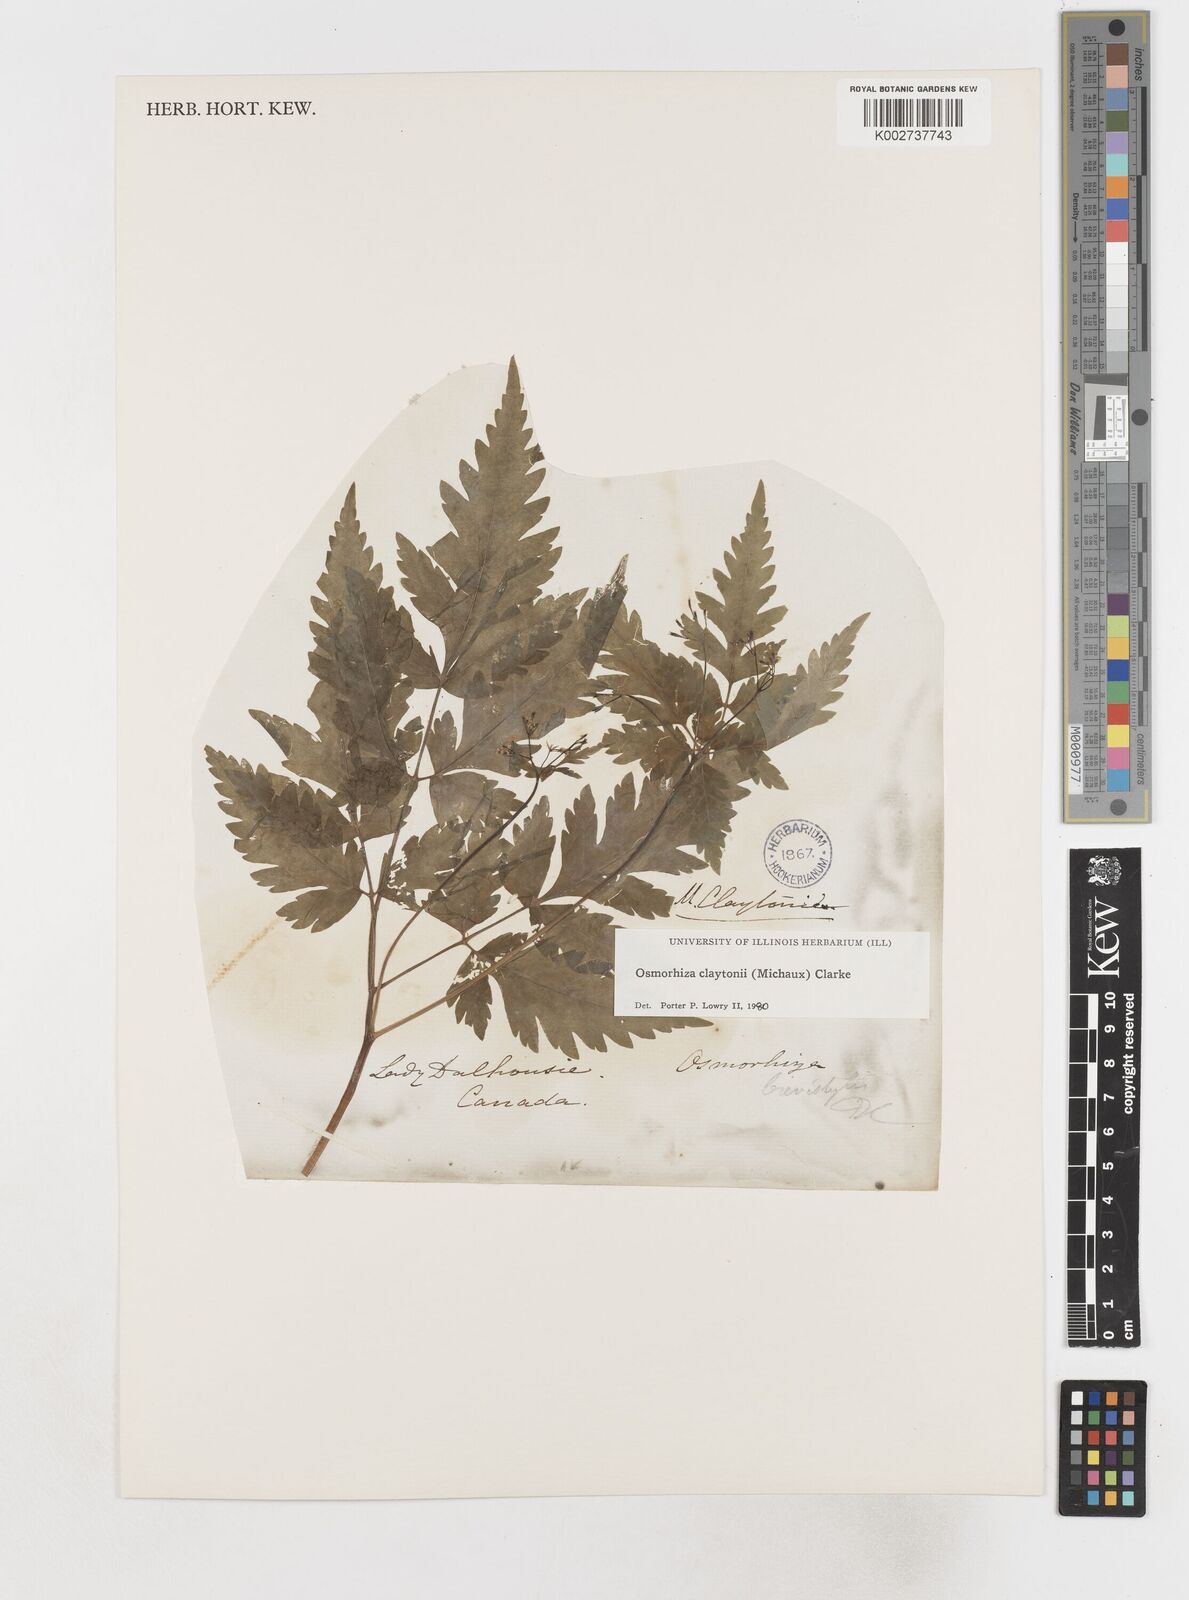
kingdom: Plantae
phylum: Tracheophyta
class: Magnoliopsida
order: Apiales
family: Apiaceae
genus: Osmorhiza
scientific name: Osmorhiza claytonii
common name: Hairy sweet cicely
